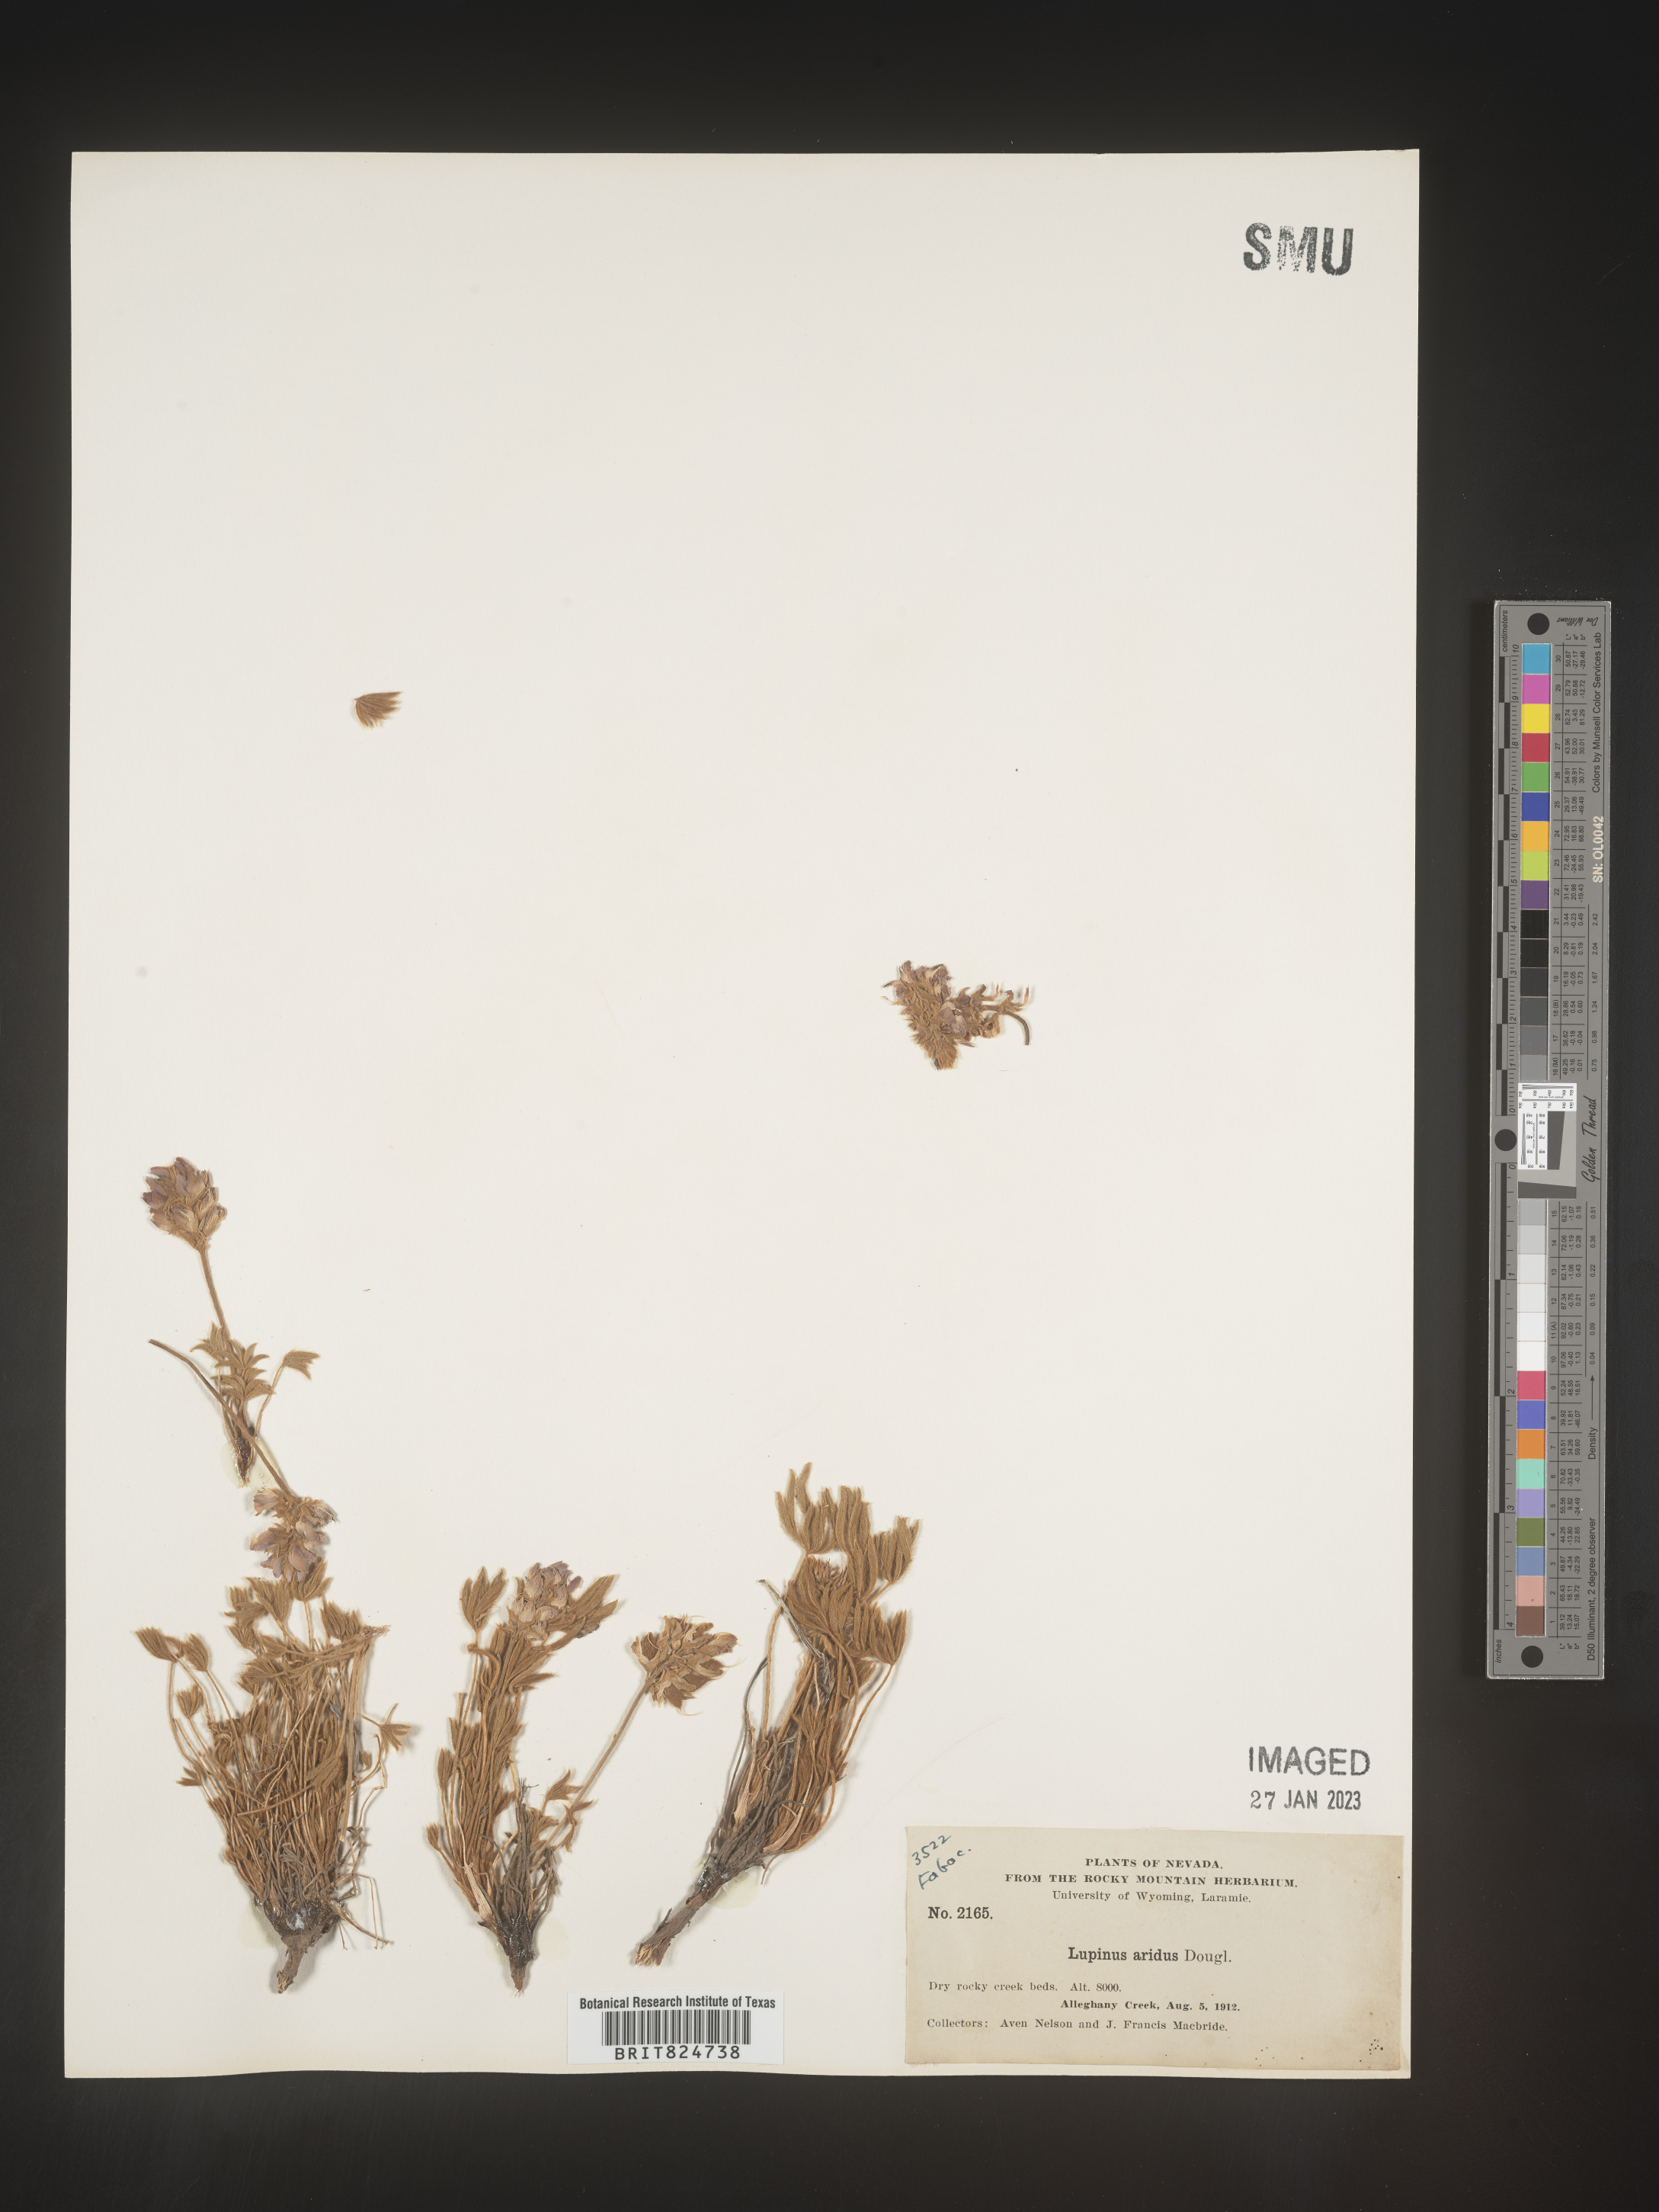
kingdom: Plantae
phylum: Tracheophyta
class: Magnoliopsida
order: Fabales
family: Fabaceae
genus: Lupinus
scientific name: Lupinus aridus
